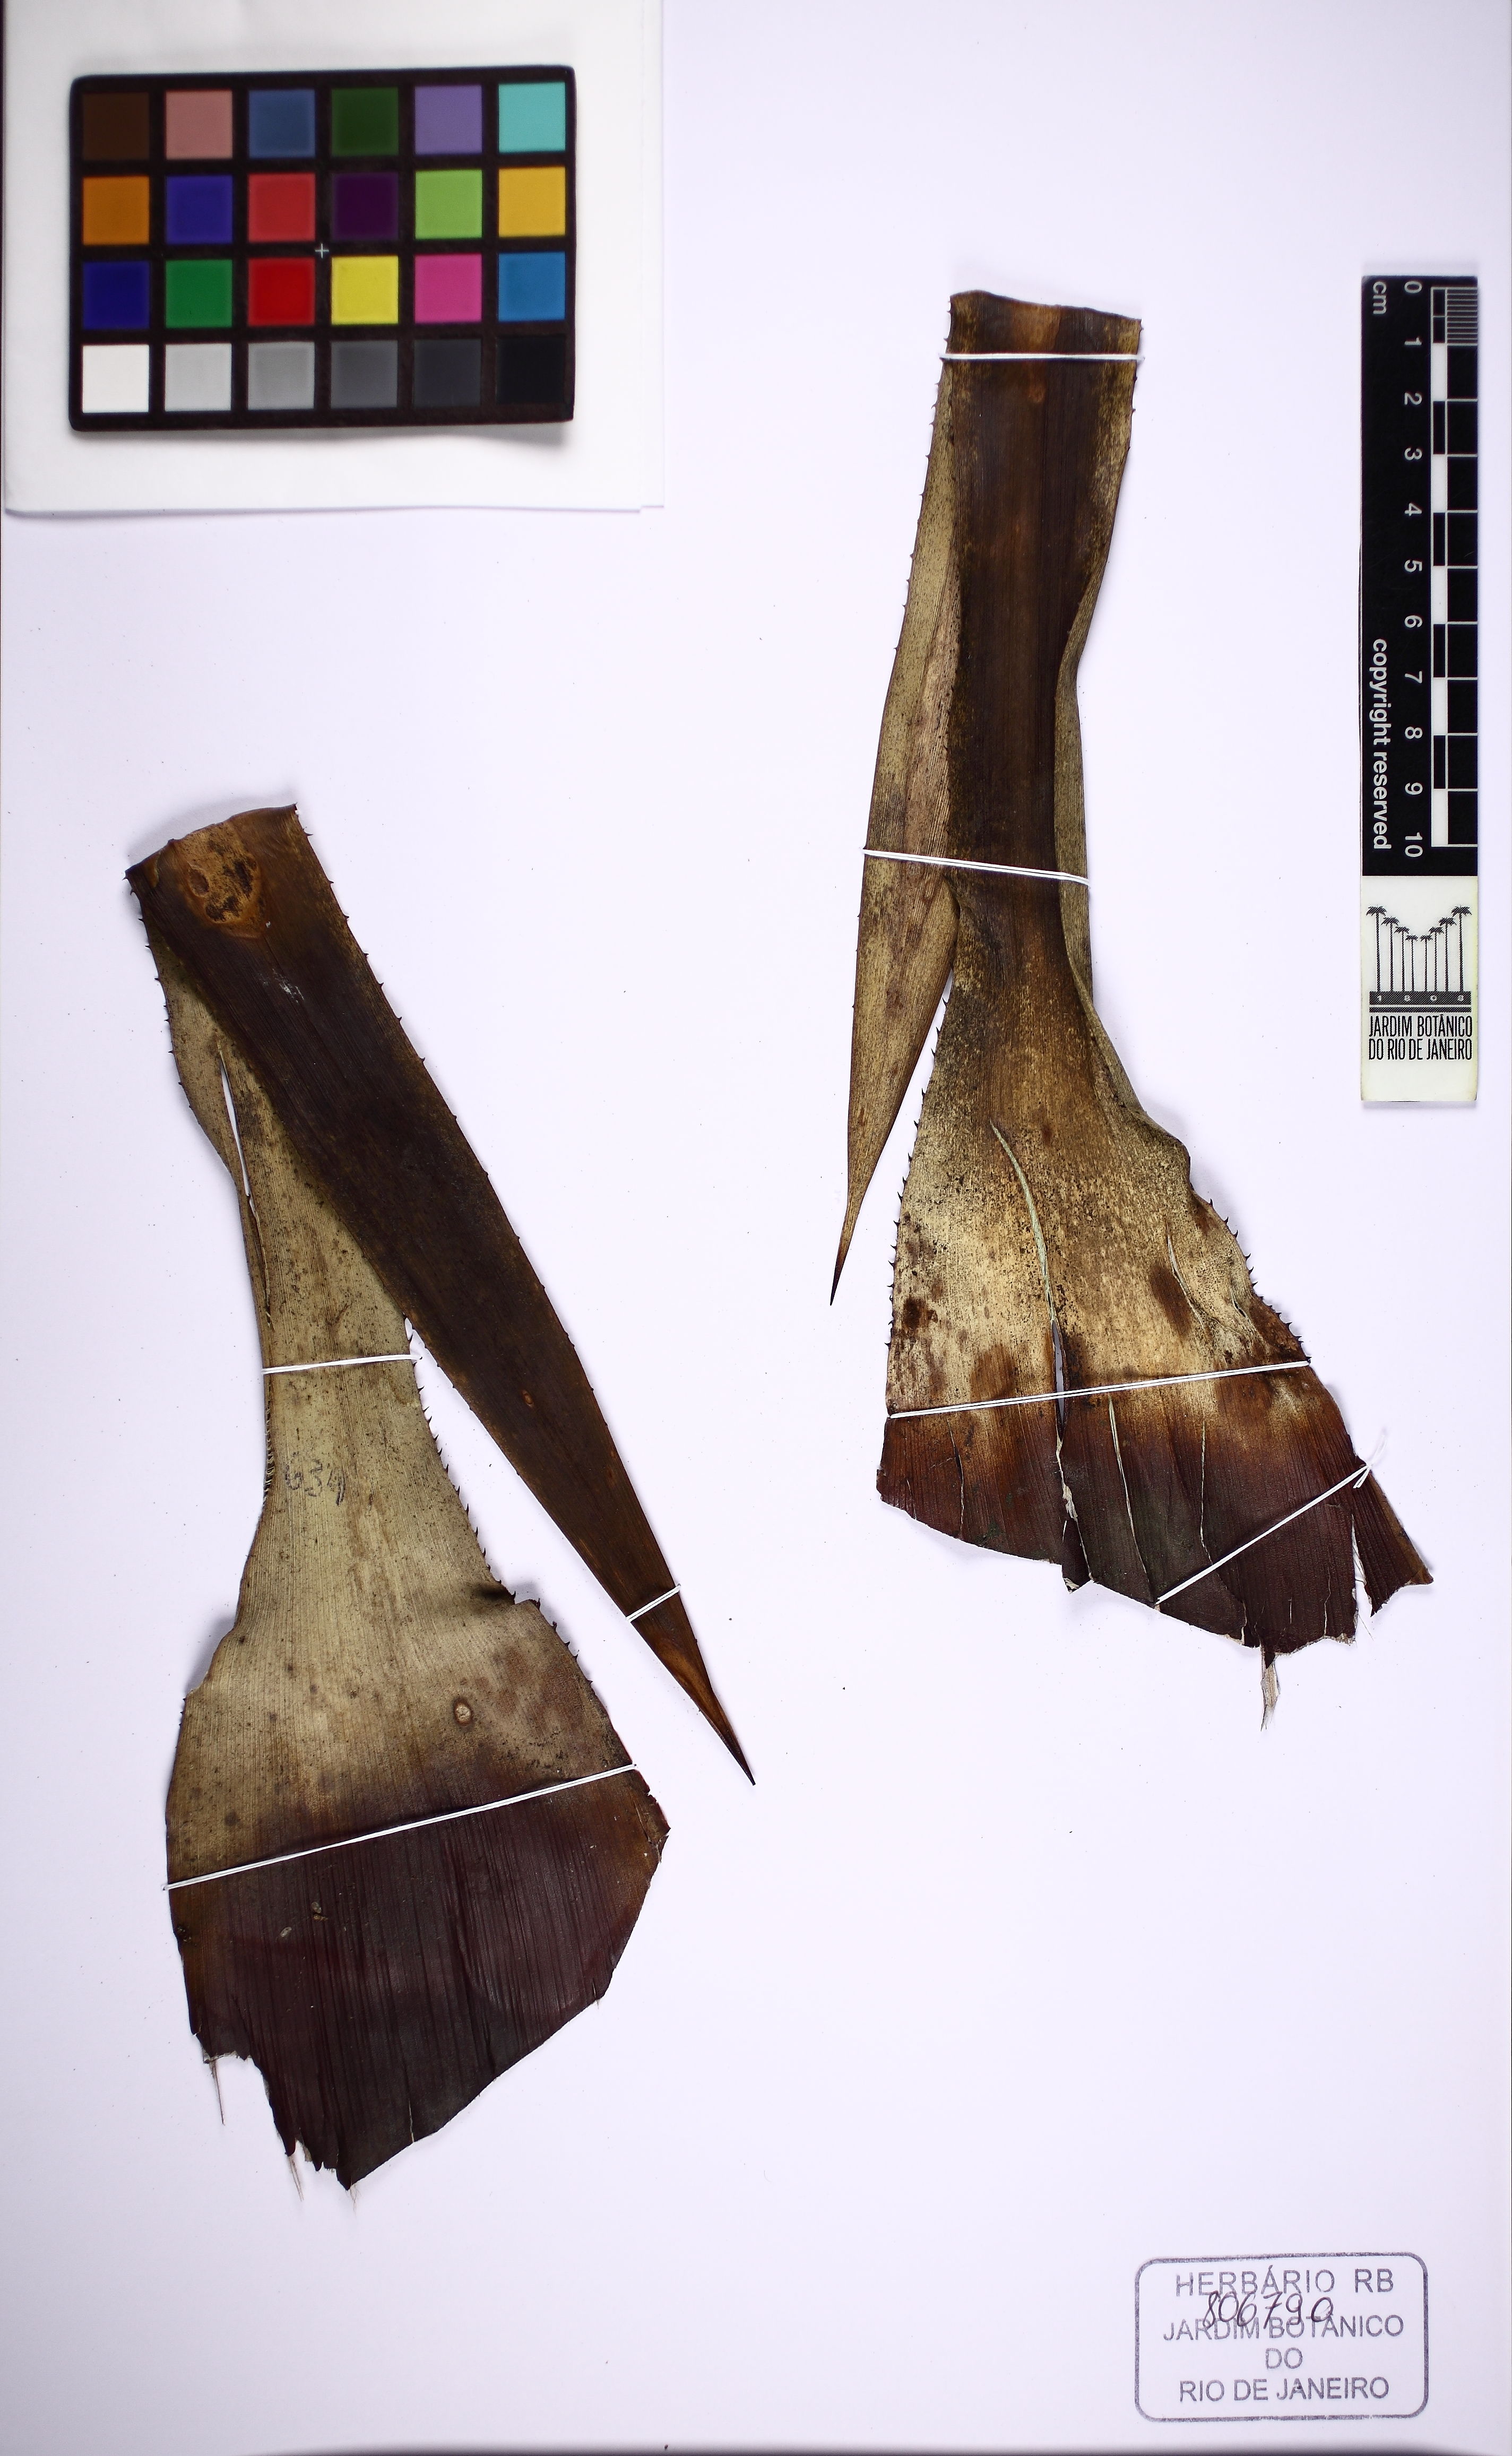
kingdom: Plantae
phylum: Tracheophyta
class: Liliopsida
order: Poales
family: Bromeliaceae
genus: Hohenbergia
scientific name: Hohenbergia catingae
